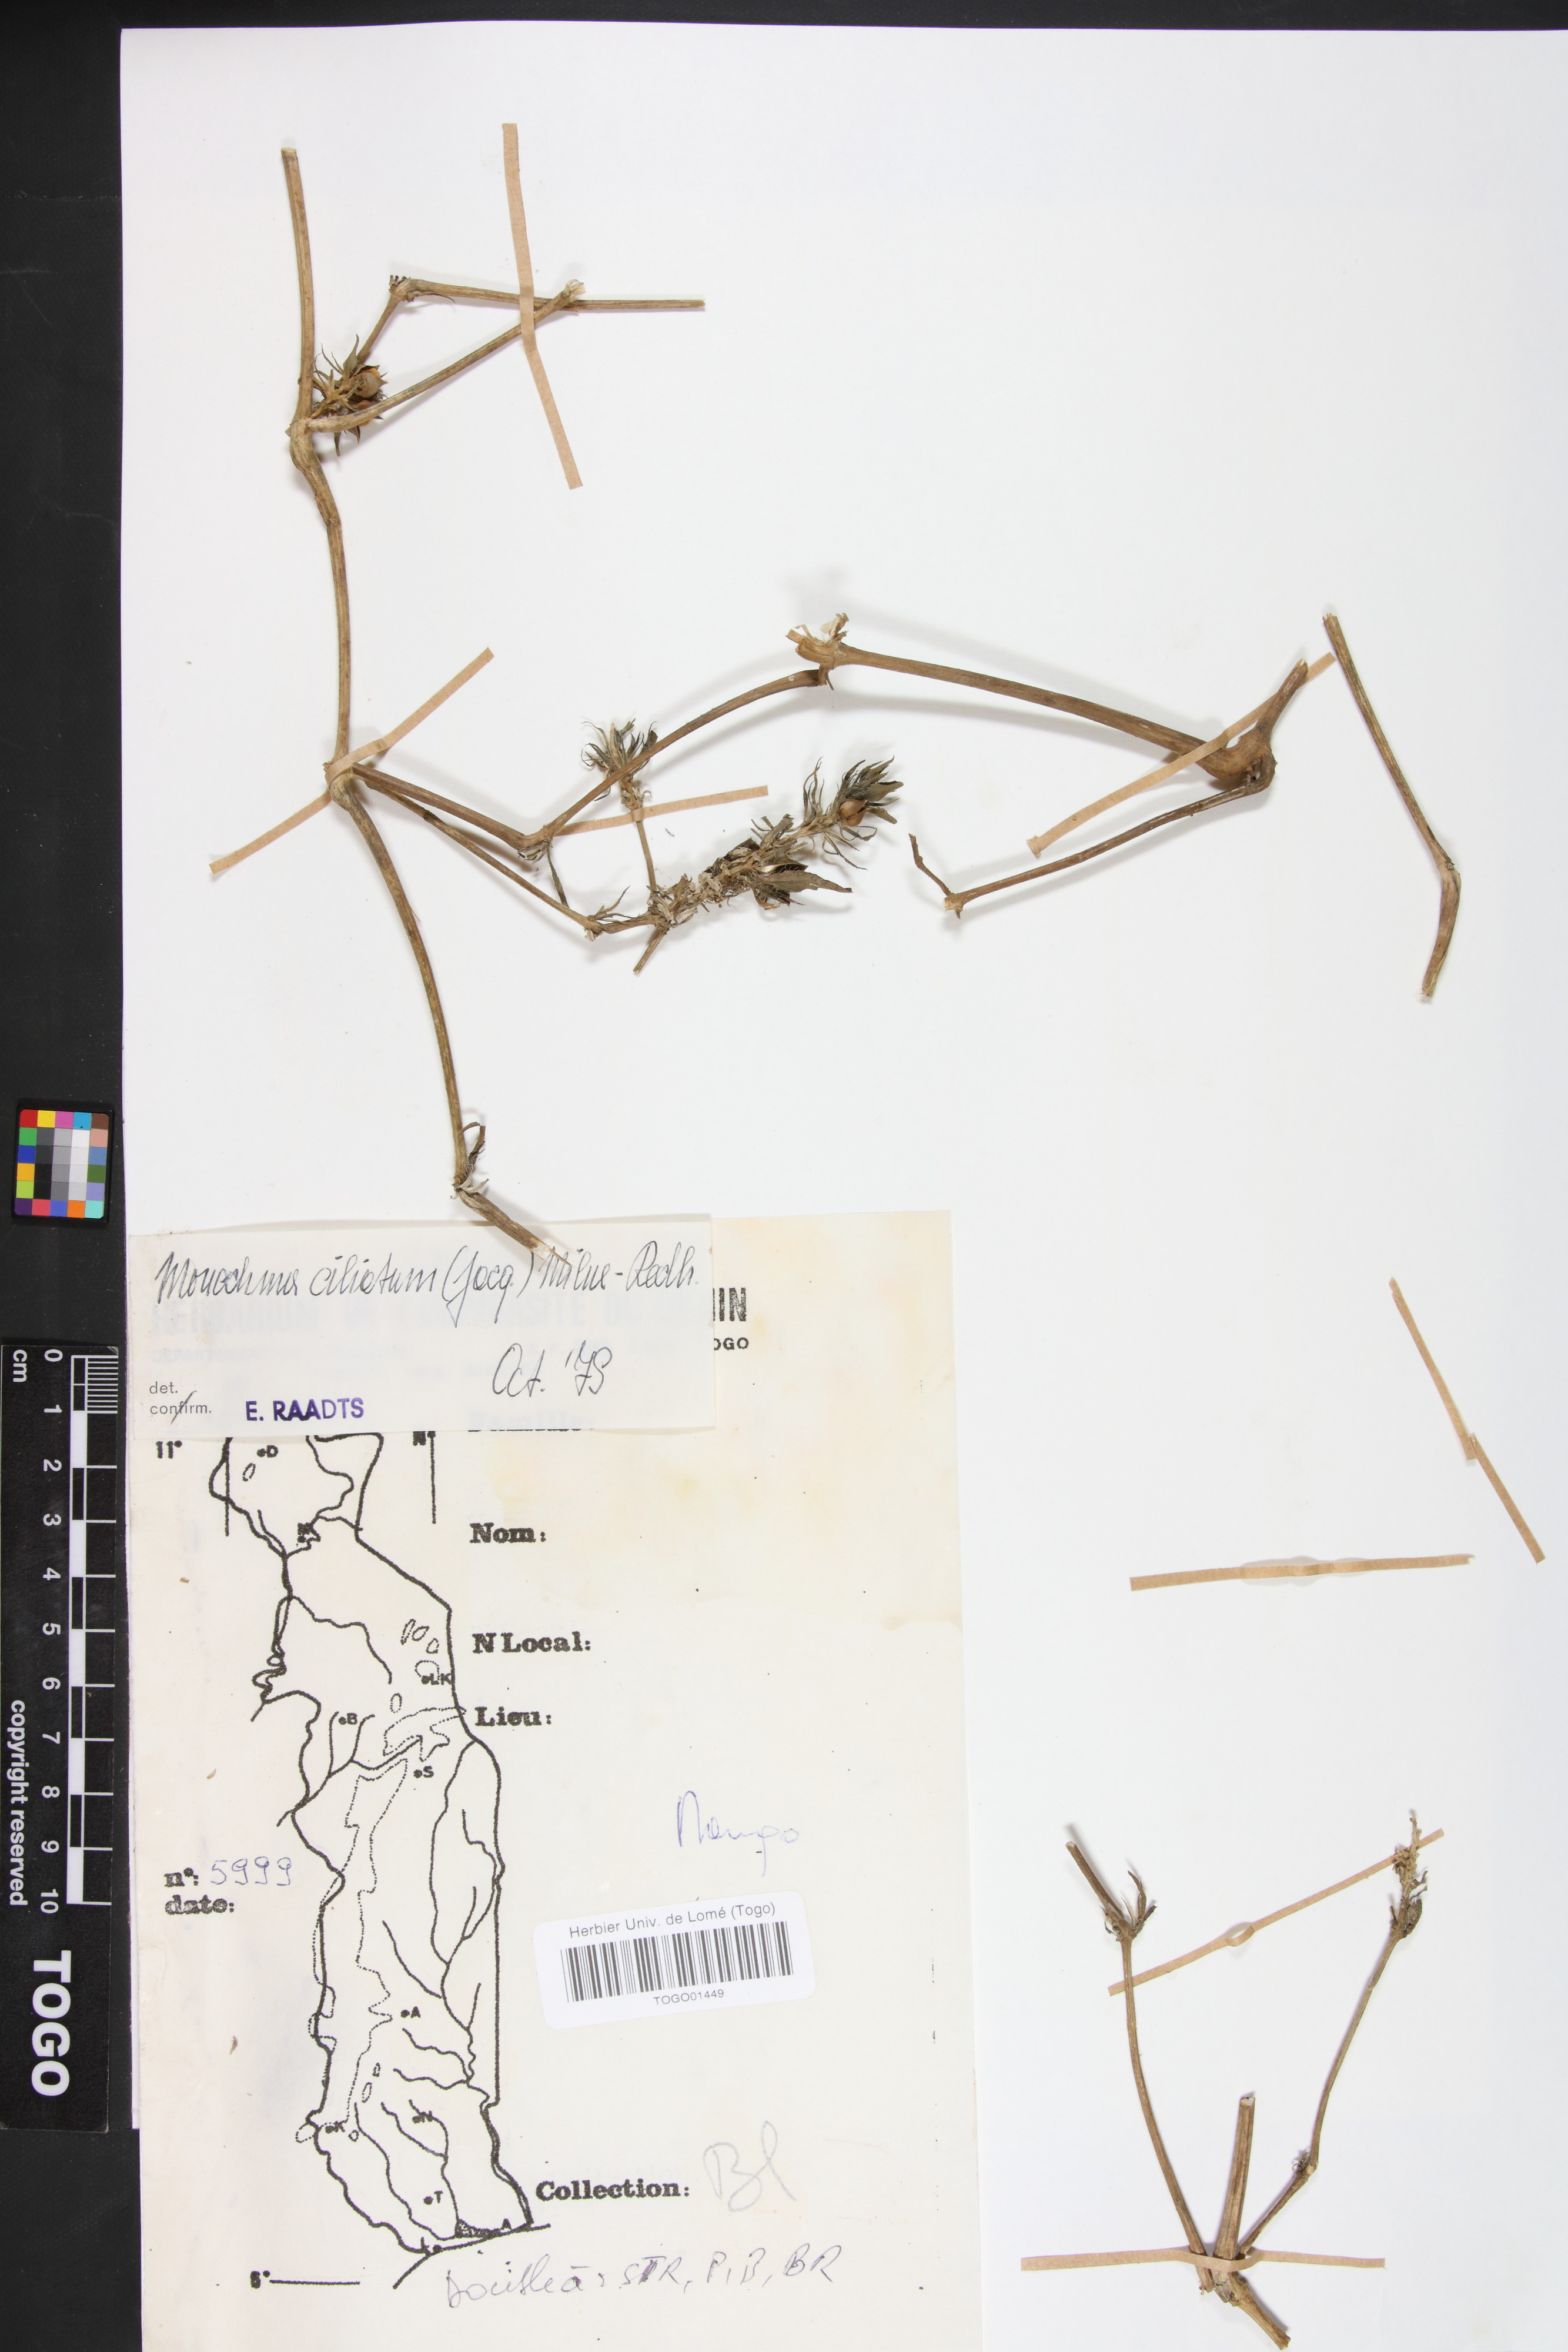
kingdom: Plantae
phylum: Tracheophyta
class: Magnoliopsida
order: Lamiales
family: Acanthaceae
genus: Pogonospermum
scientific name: Pogonospermum ciliare
